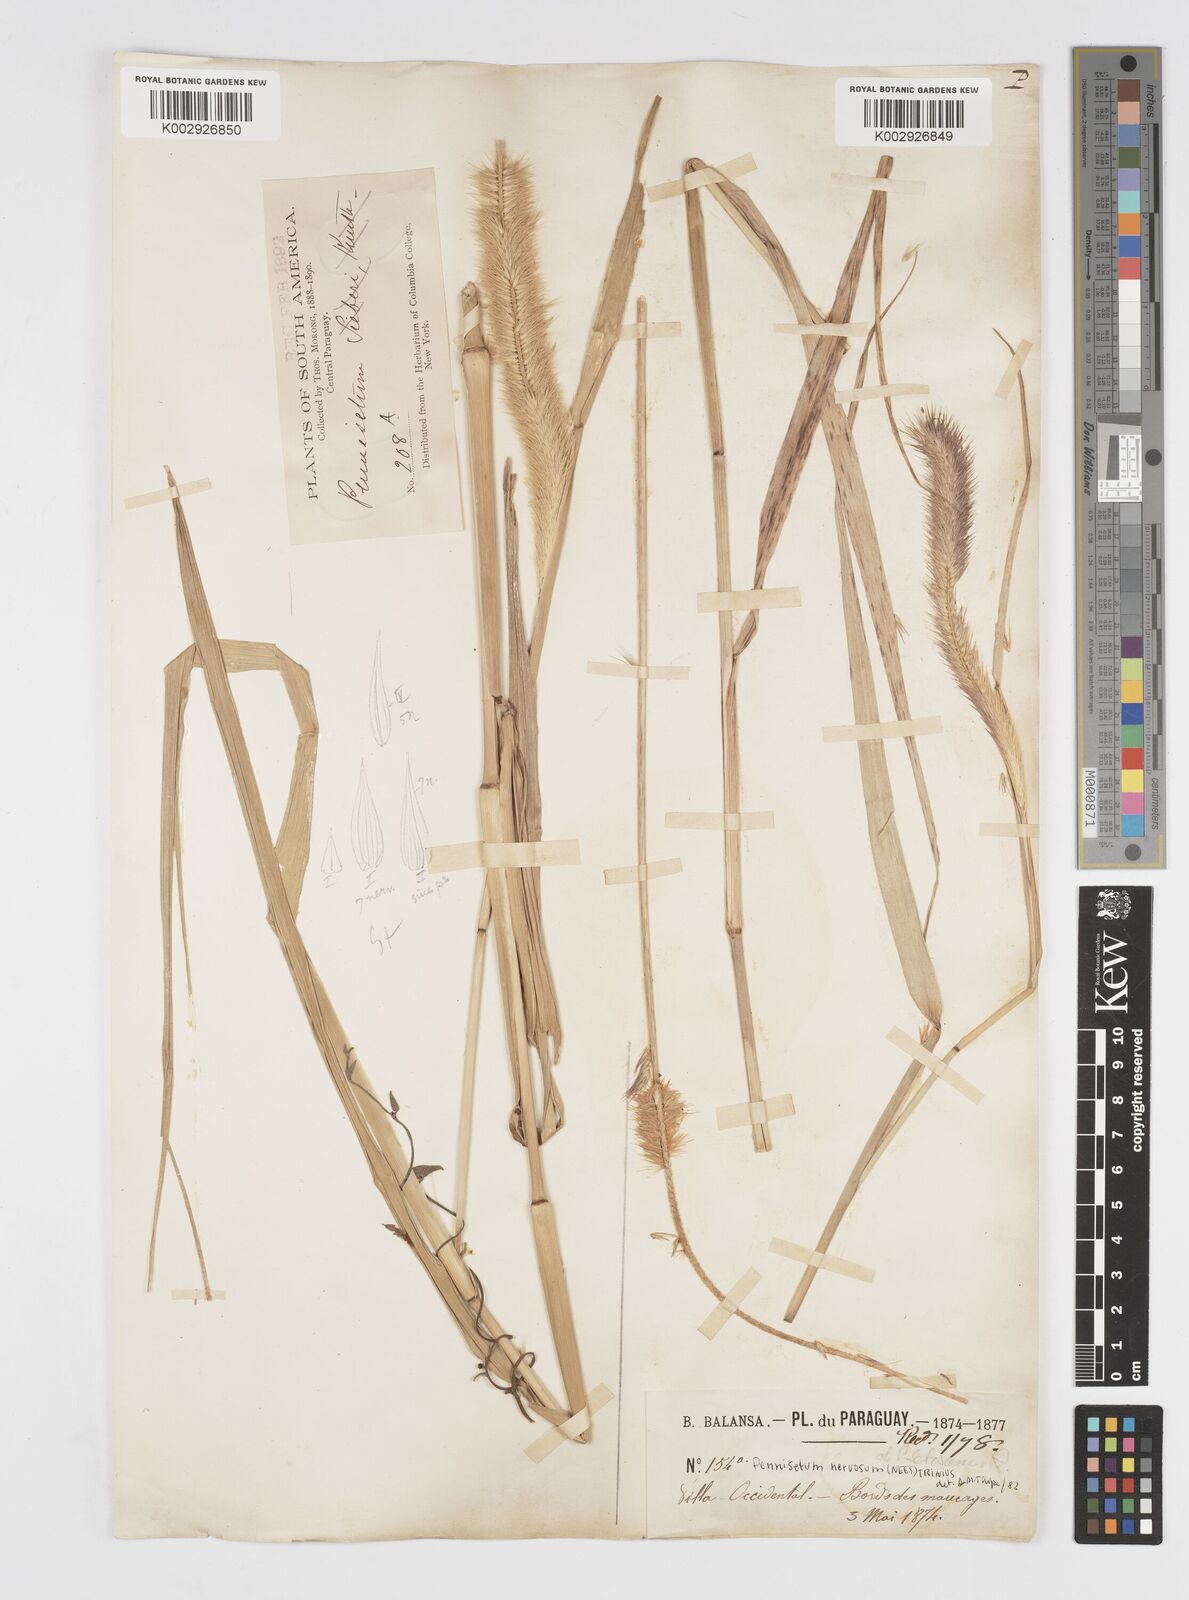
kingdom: Plantae
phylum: Tracheophyta
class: Liliopsida
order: Poales
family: Poaceae
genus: Cenchrus
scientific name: Cenchrus nervosus
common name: Bentspike fountaingrass
